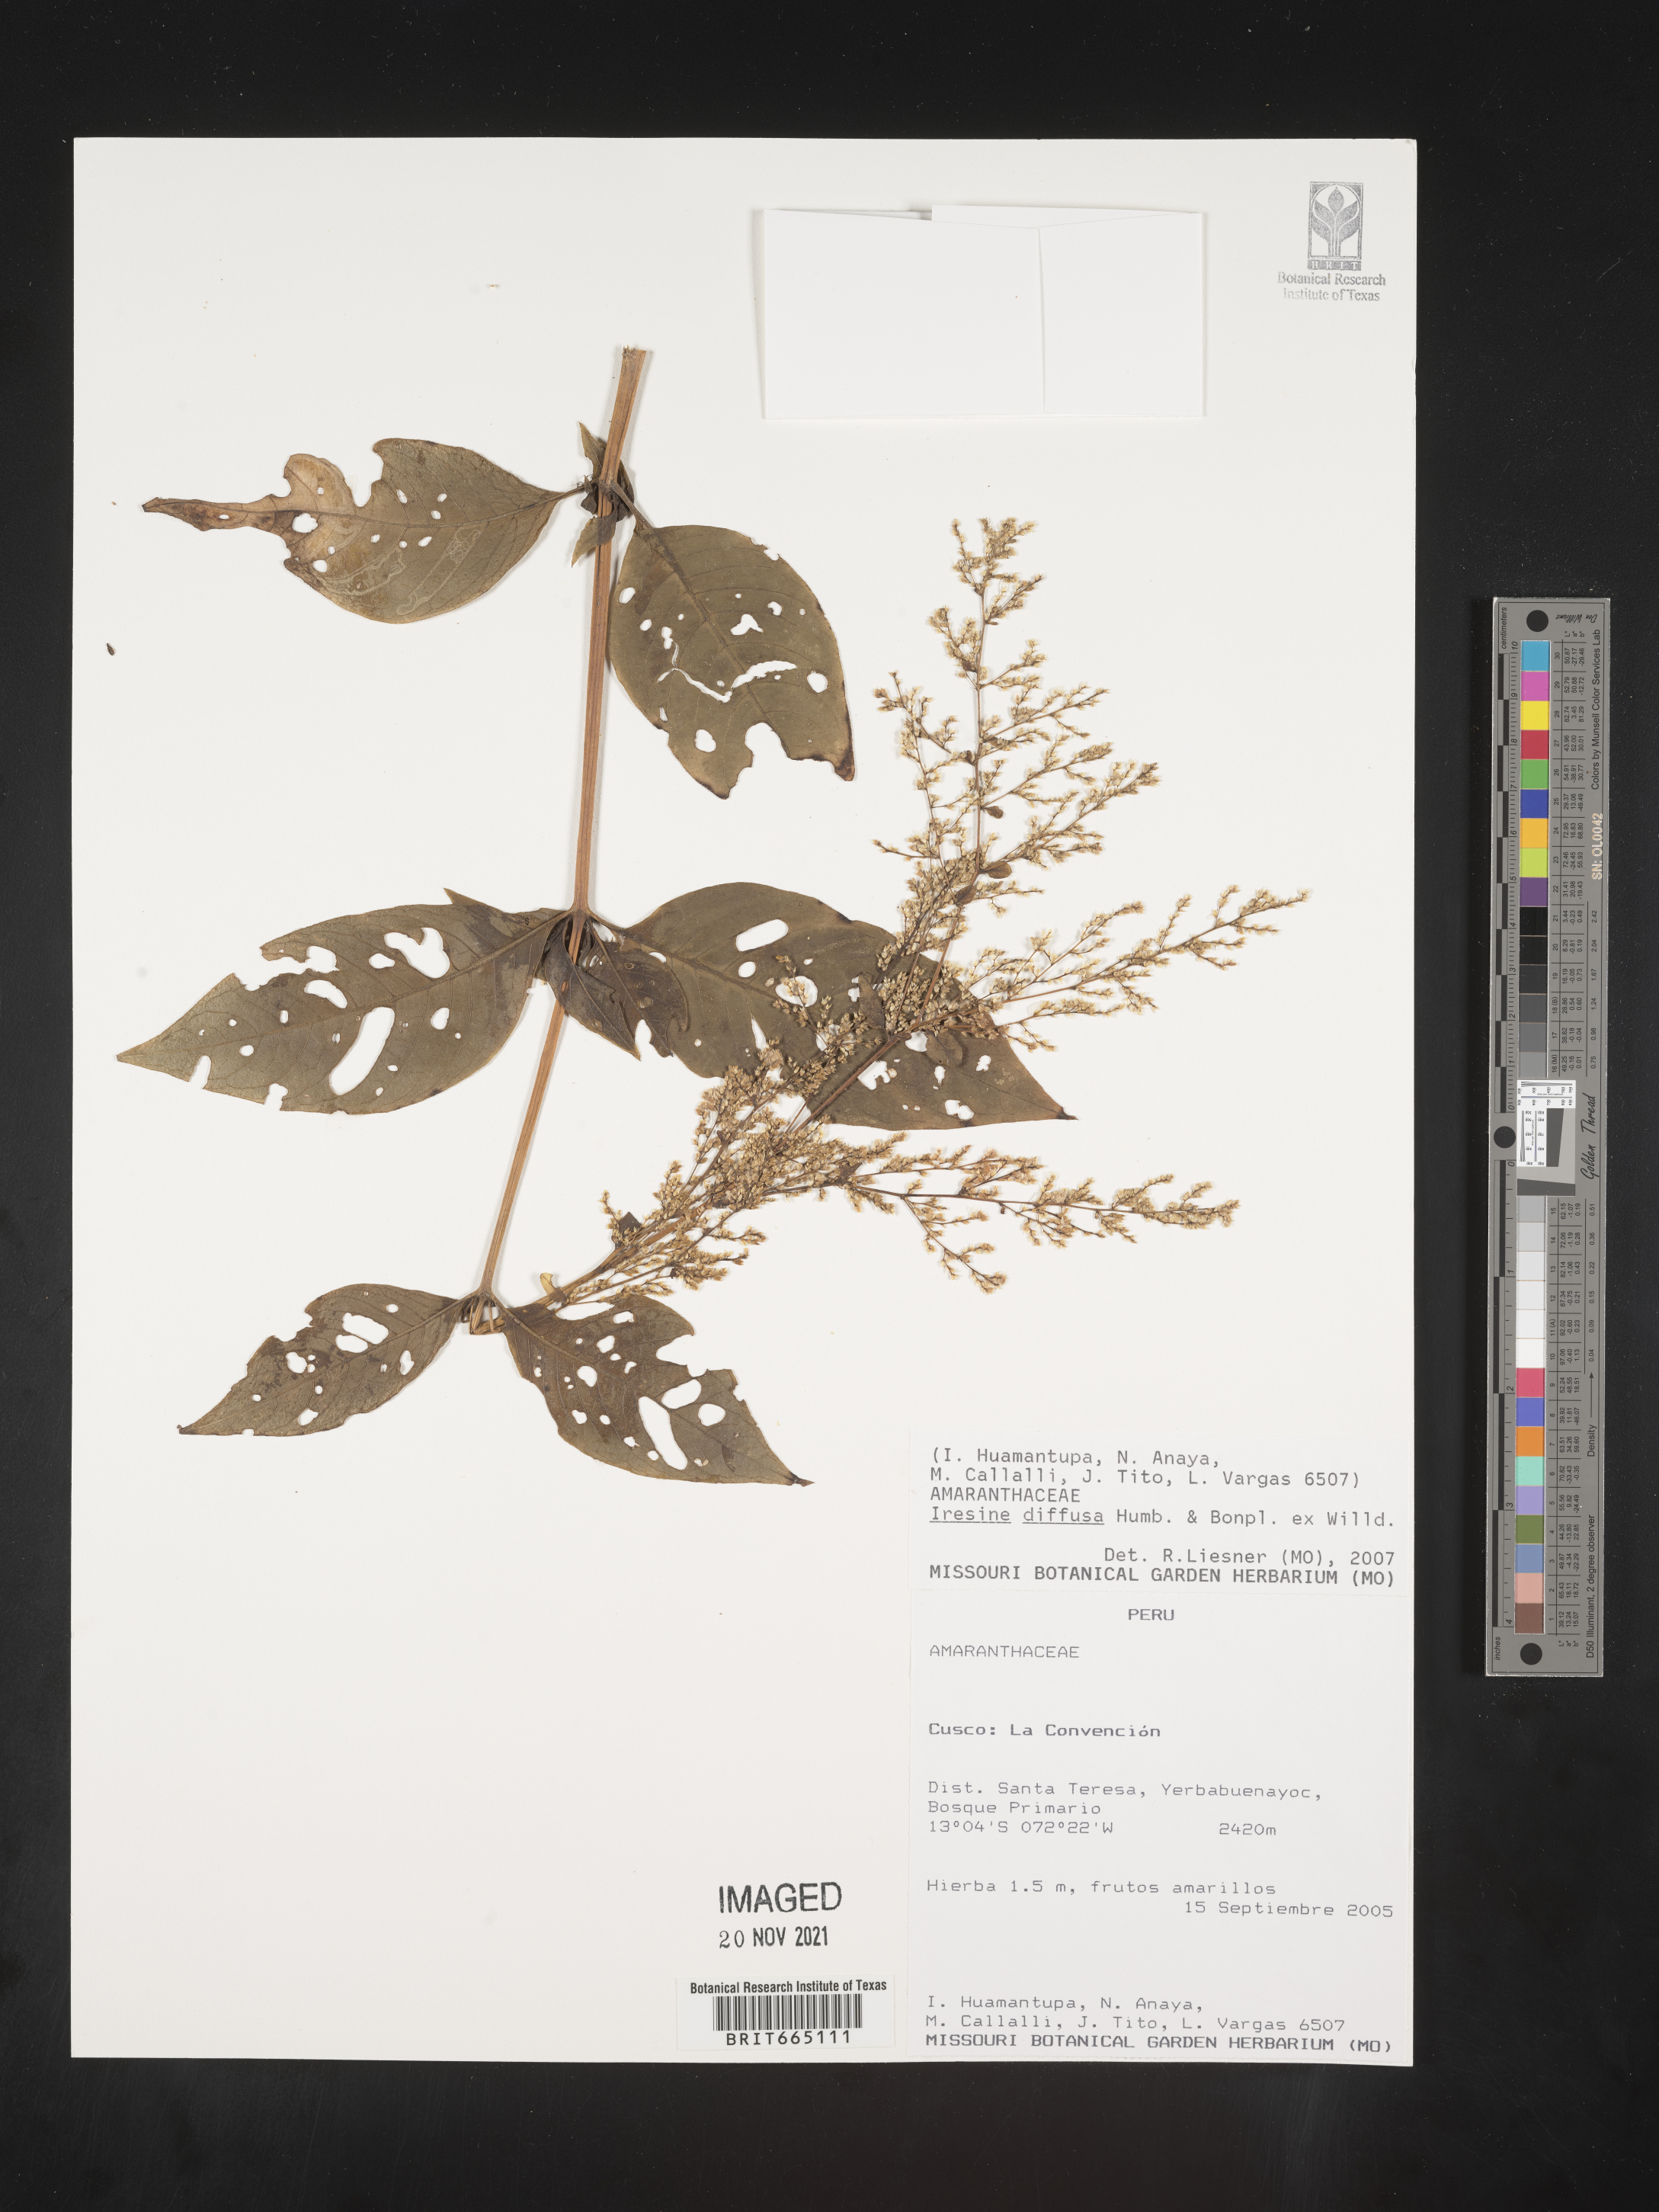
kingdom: Plantae
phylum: Tracheophyta
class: Magnoliopsida
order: Caryophyllales
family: Amaranthaceae
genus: Iresine
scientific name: Iresine
